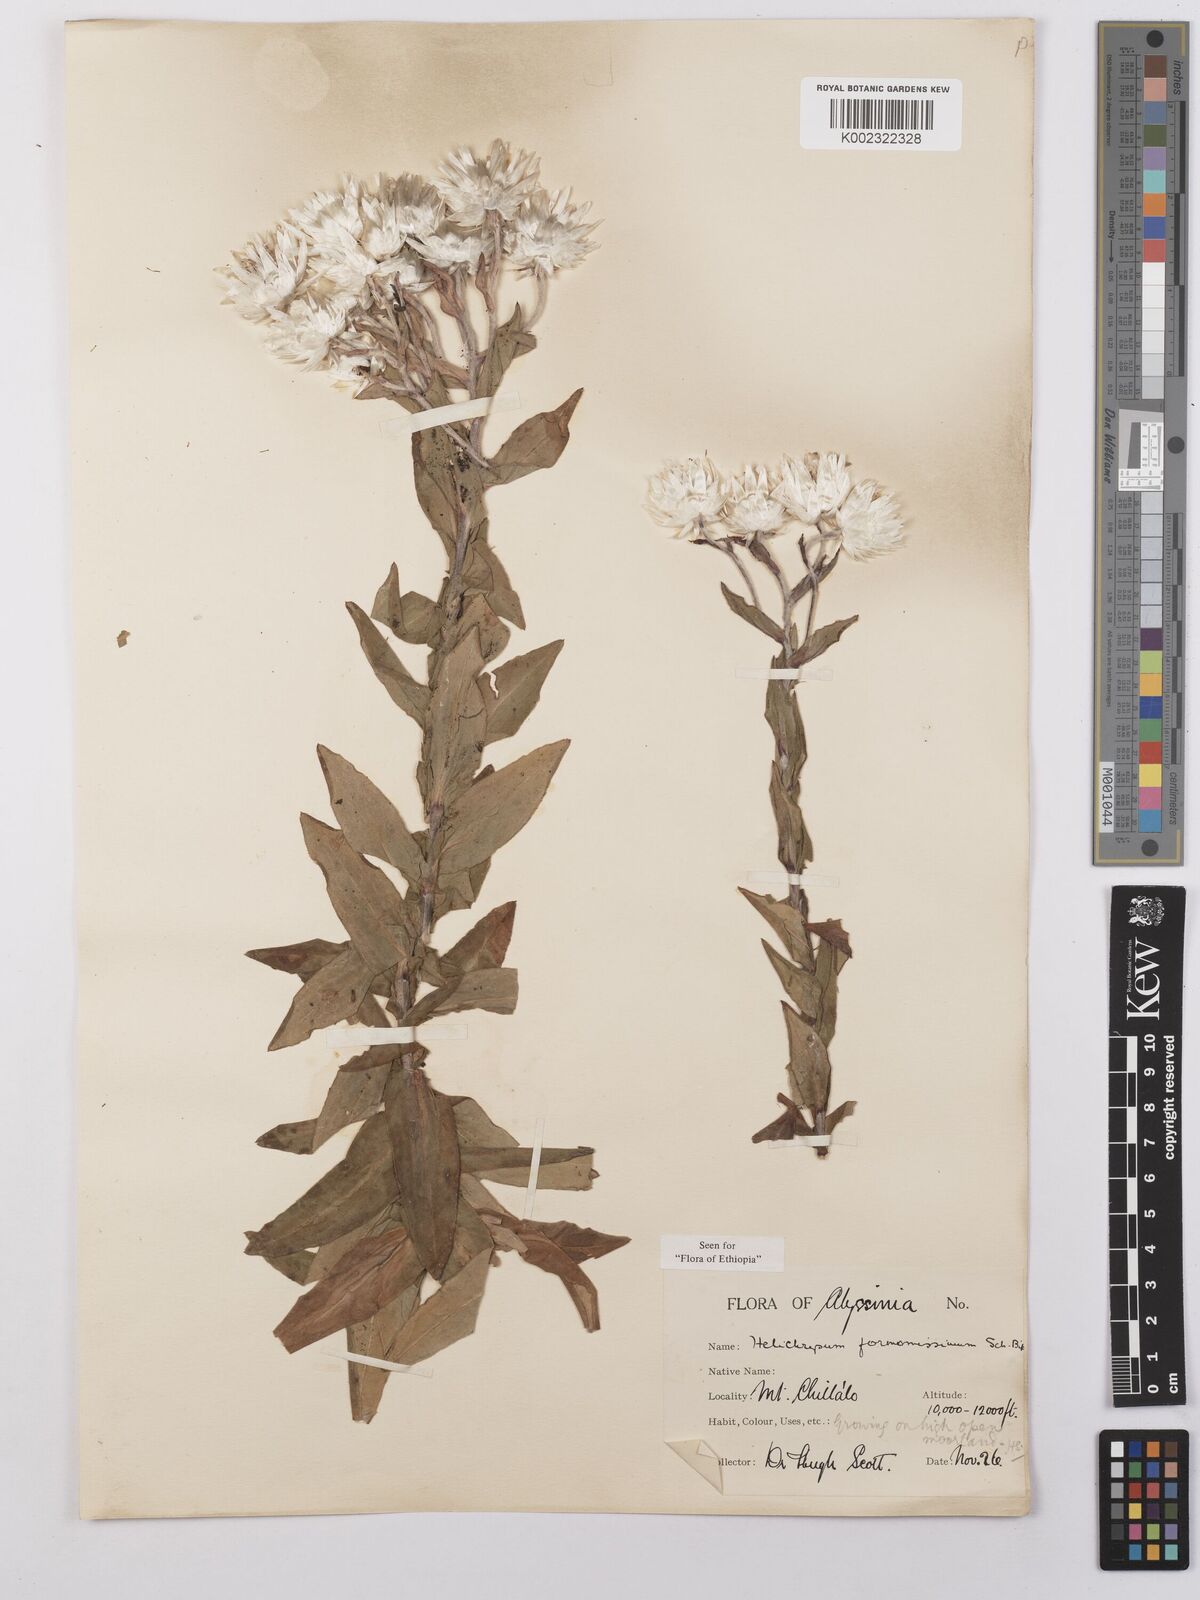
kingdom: Plantae
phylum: Tracheophyta
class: Magnoliopsida
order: Asterales
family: Asteraceae
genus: Helichrysum
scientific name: Helichrysum formosissimum
